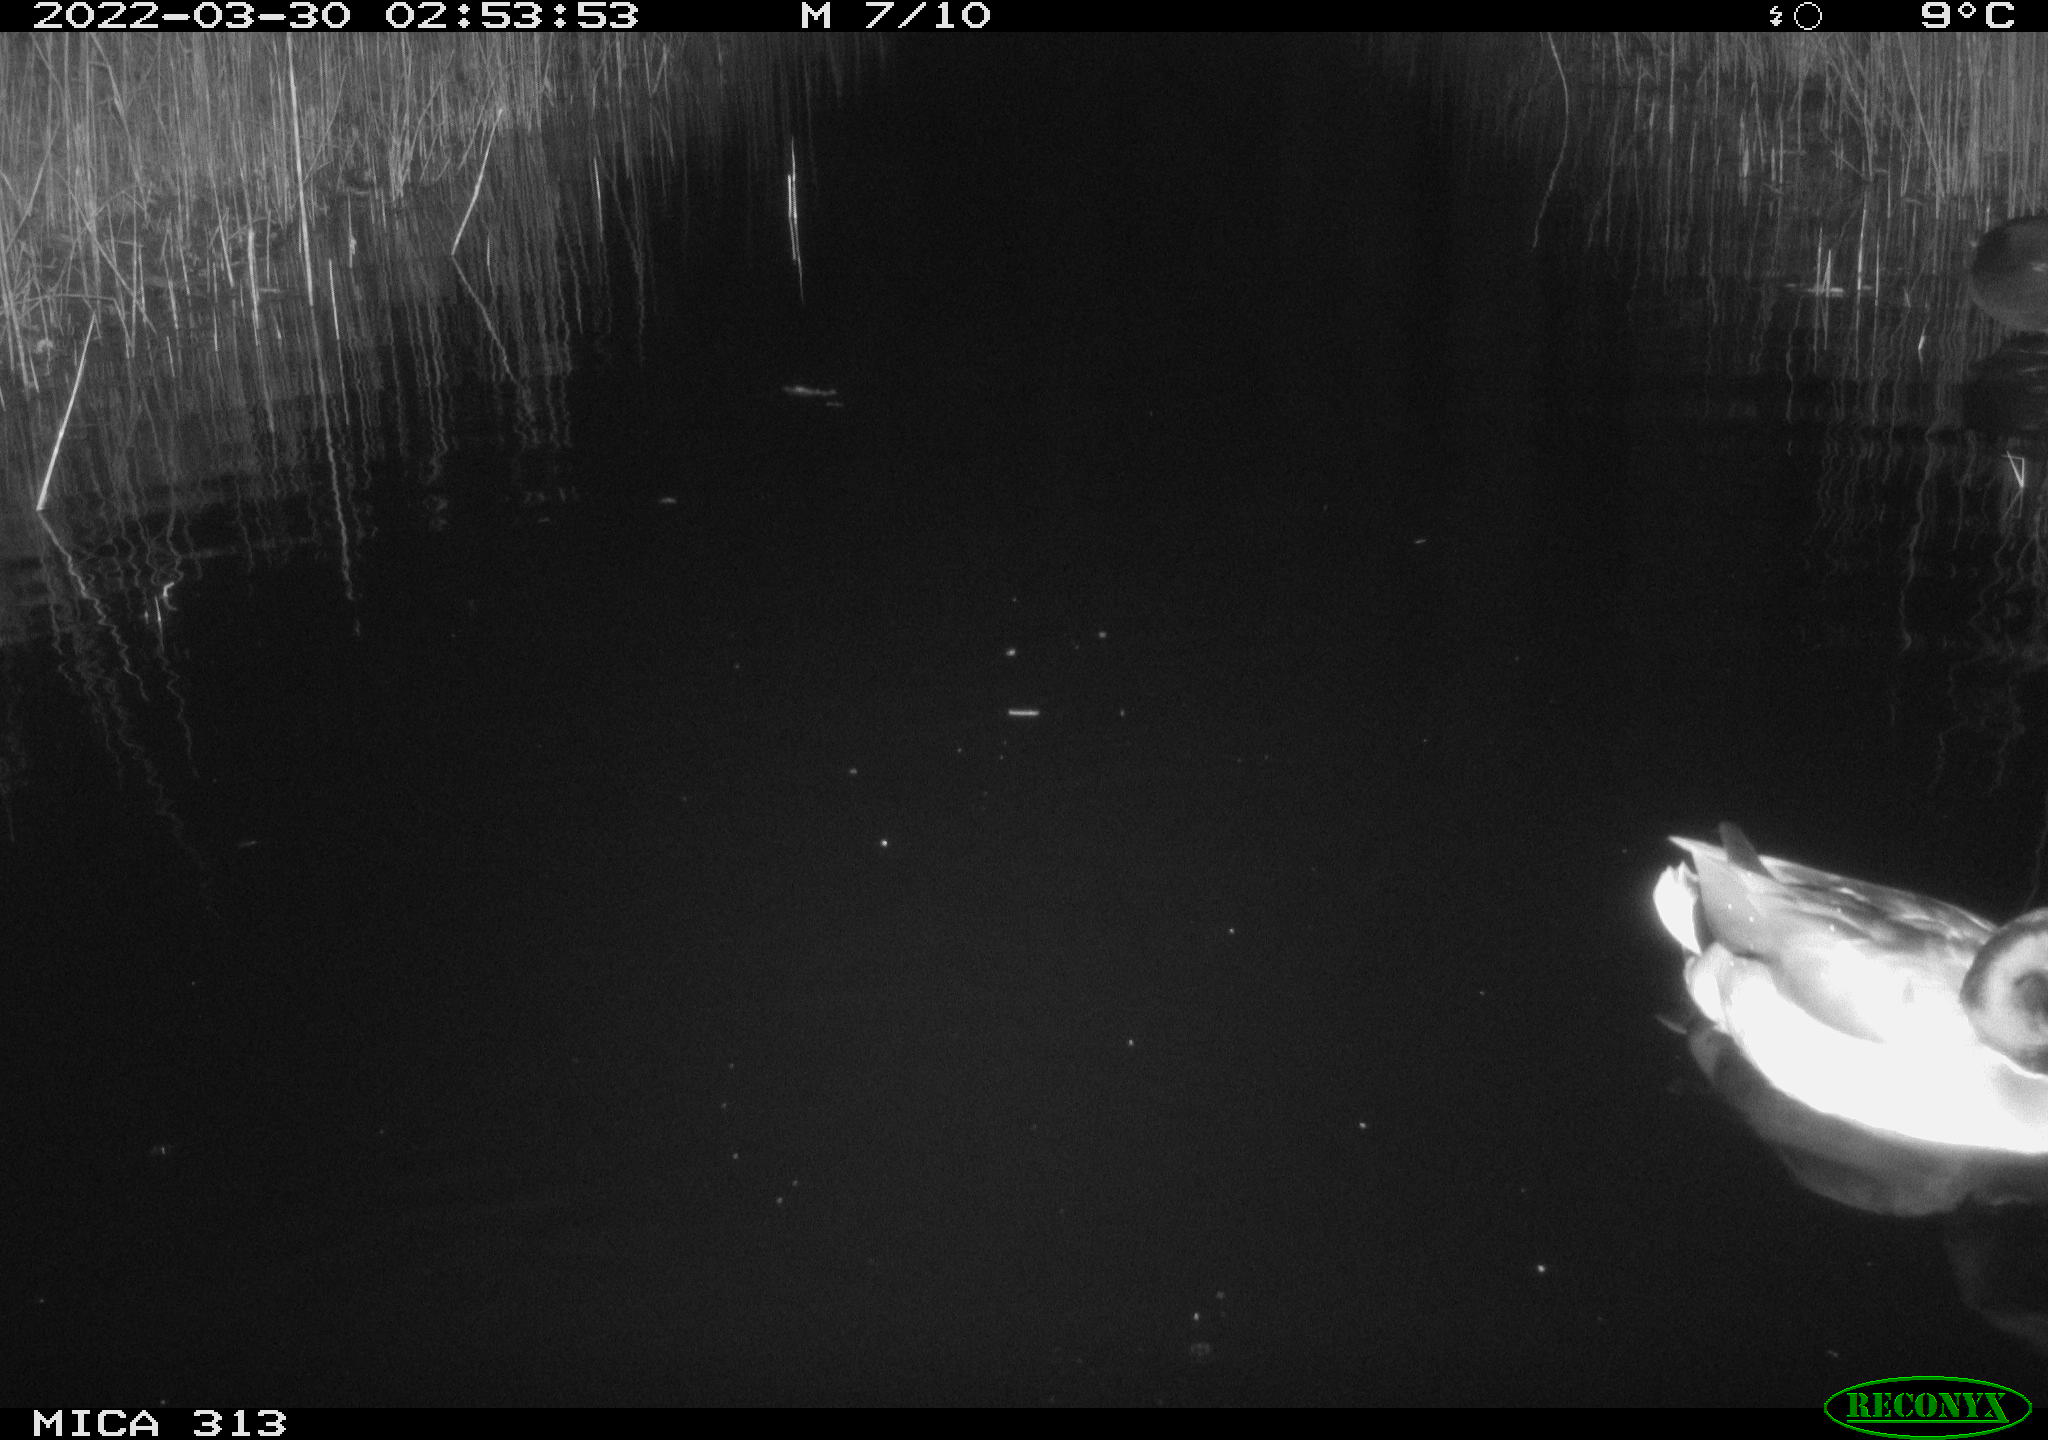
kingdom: Animalia
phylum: Chordata
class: Aves
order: Anseriformes
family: Anatidae
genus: Anas
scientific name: Anas platyrhynchos
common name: Mallard
